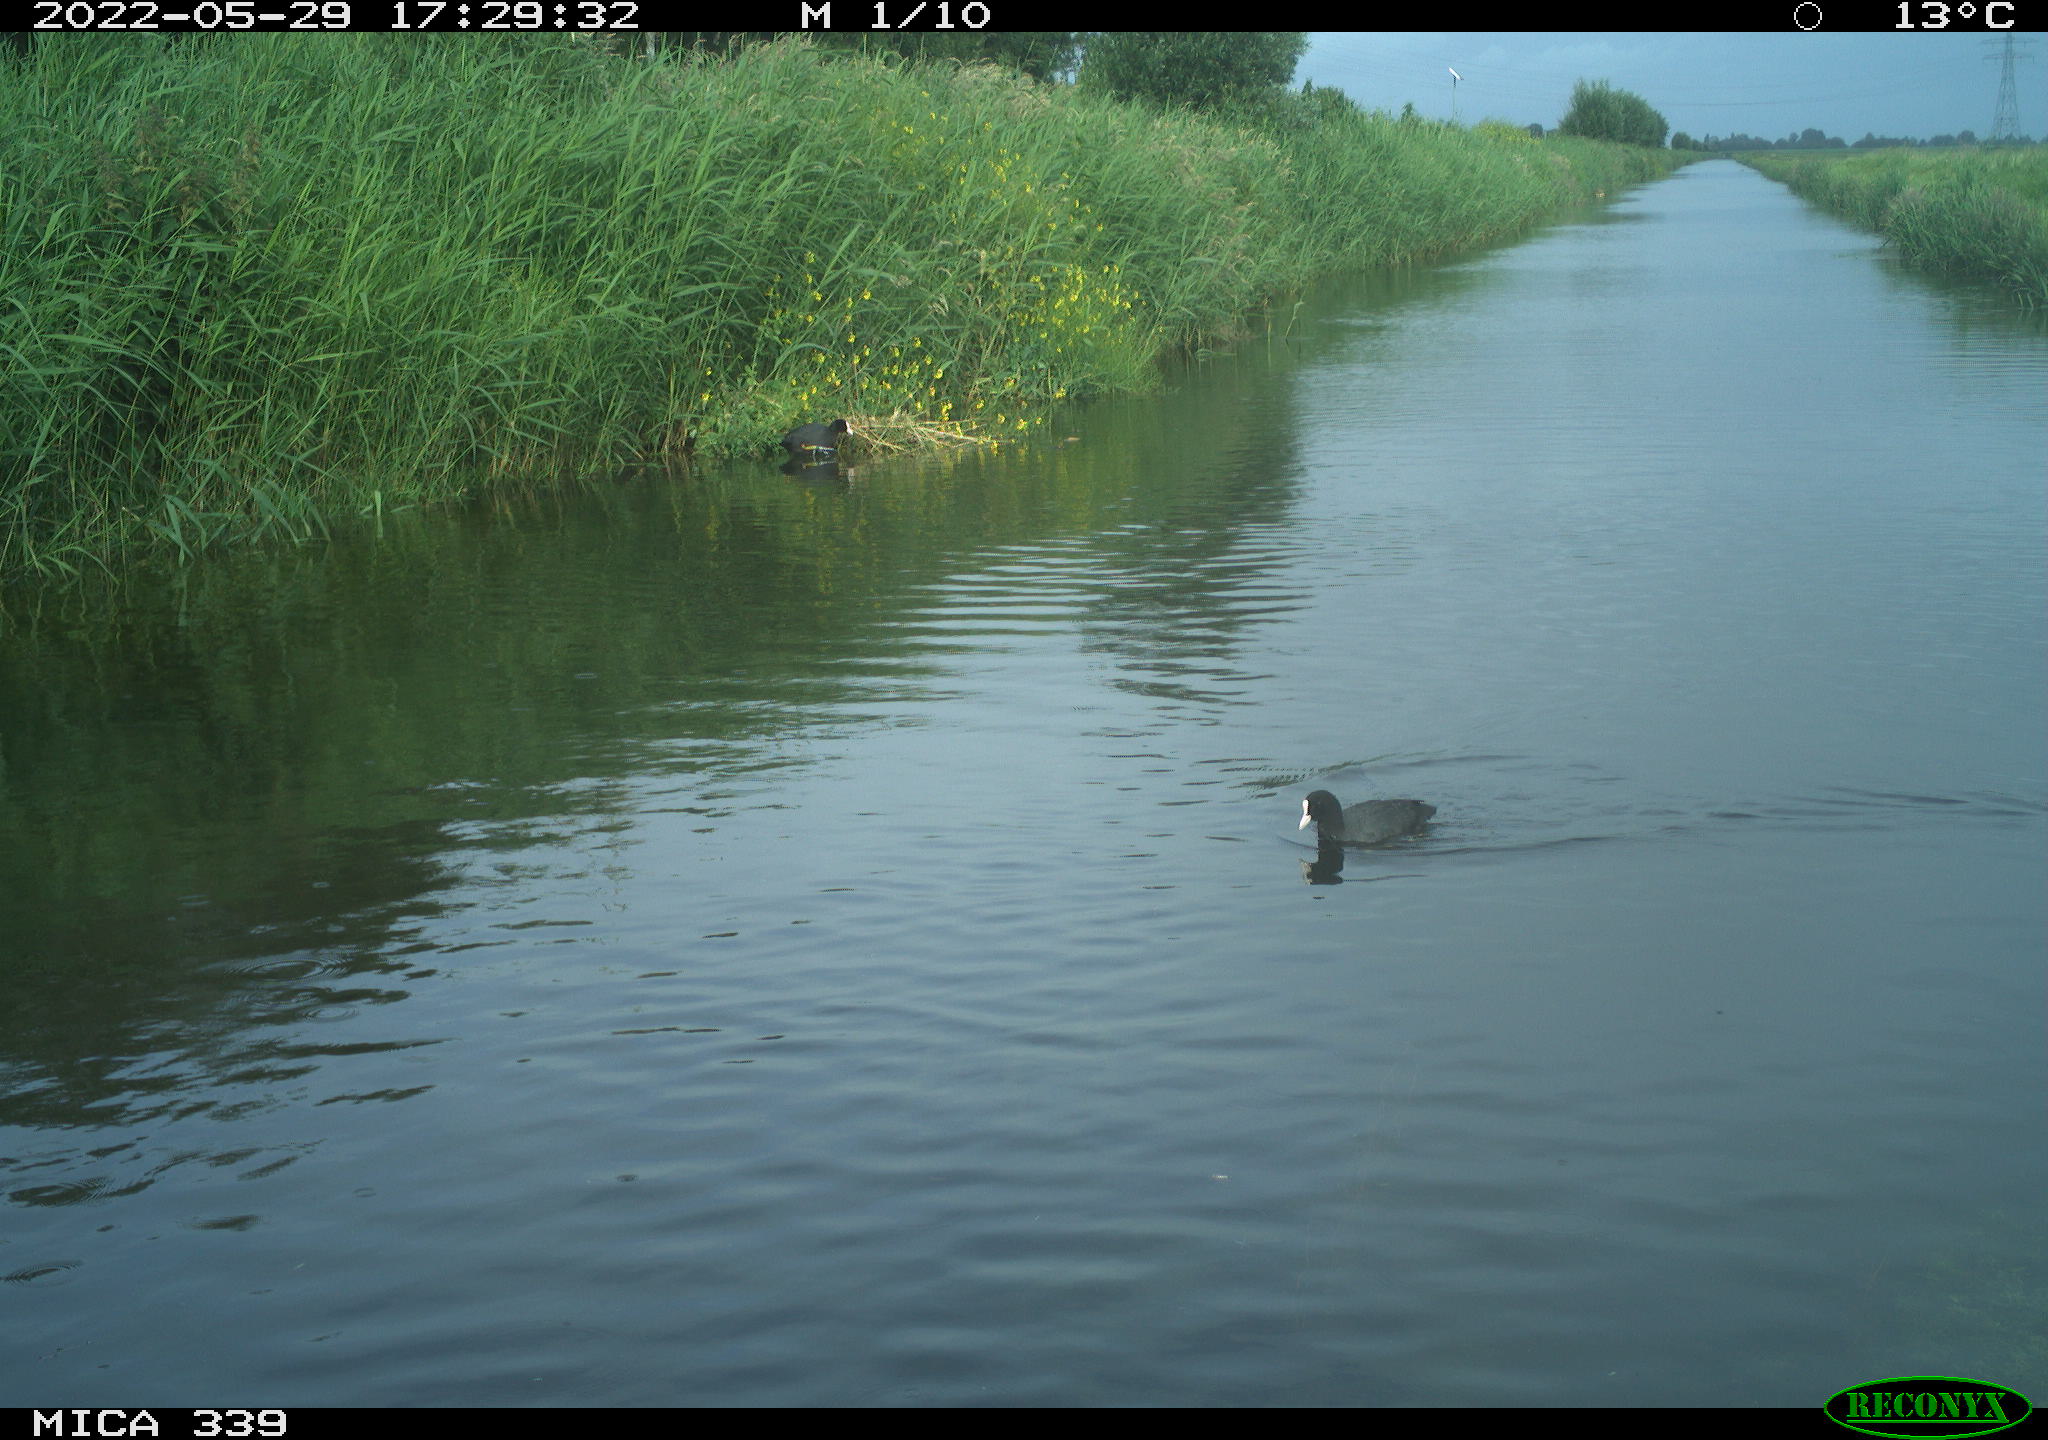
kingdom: Animalia
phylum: Chordata
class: Aves
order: Gruiformes
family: Rallidae
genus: Fulica
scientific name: Fulica atra
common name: Eurasian coot
